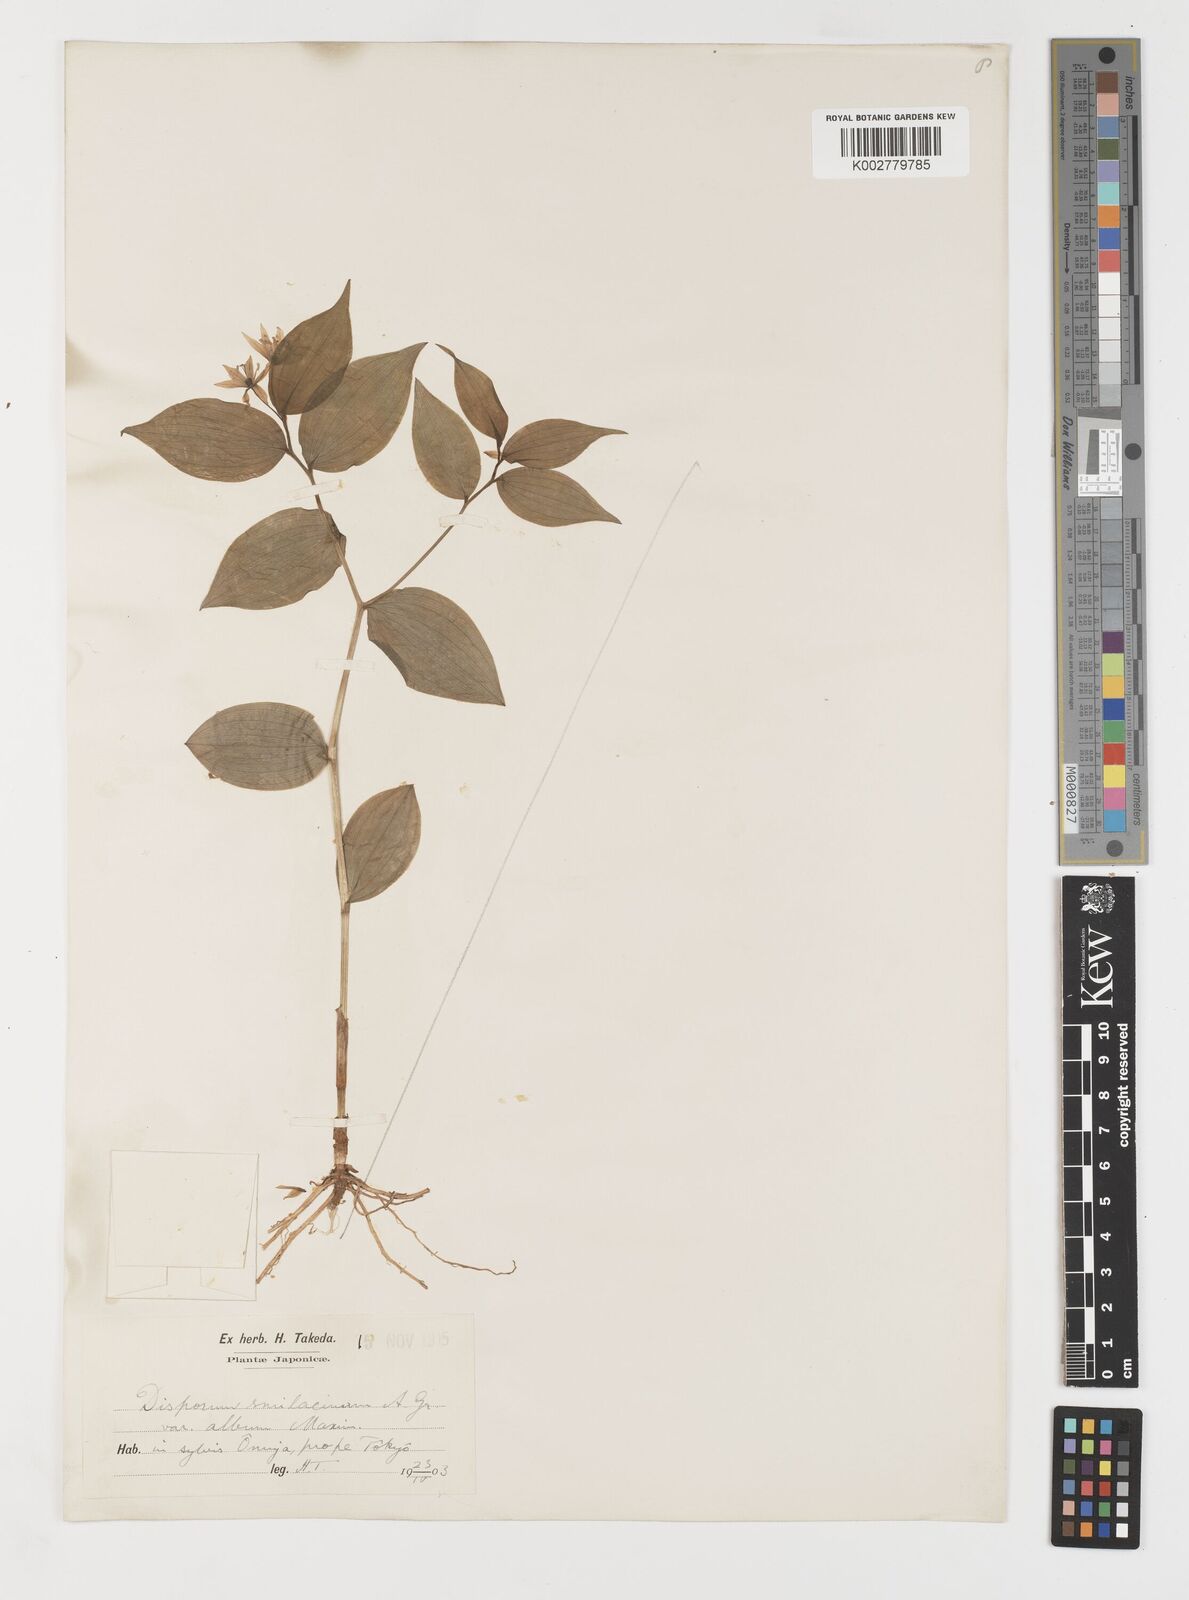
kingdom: Plantae
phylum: Tracheophyta
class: Liliopsida
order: Liliales
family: Colchicaceae
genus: Disporum
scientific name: Disporum smilacinum
